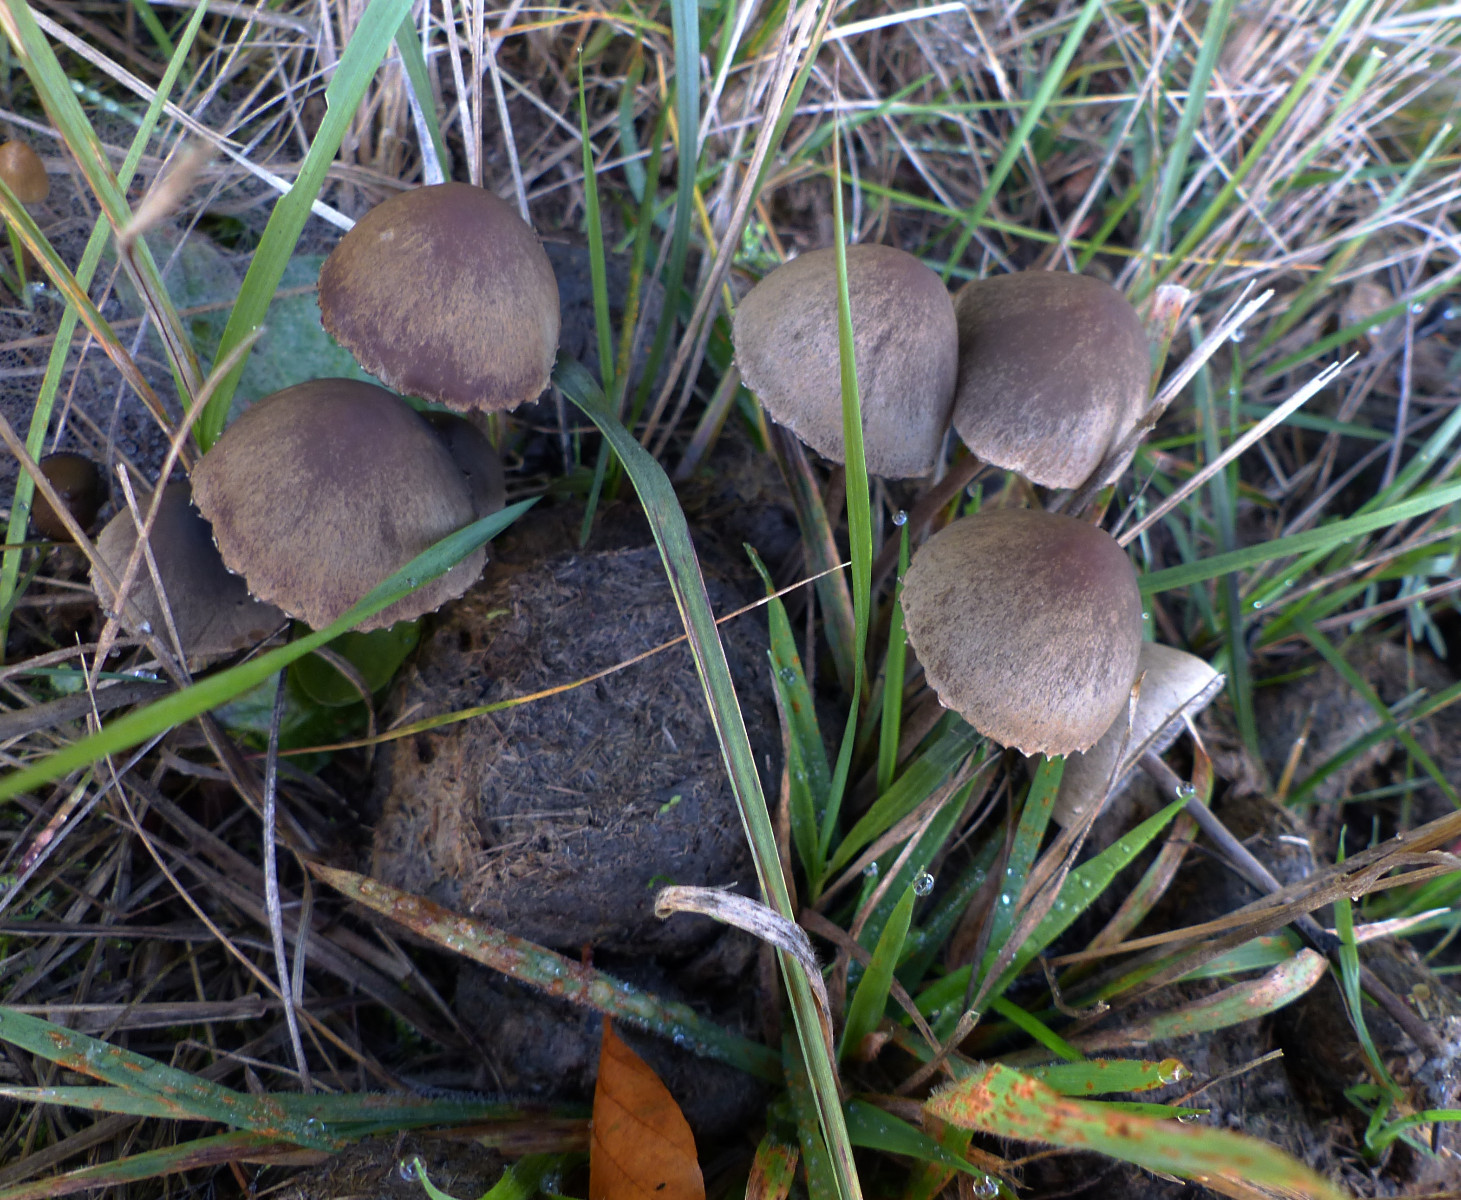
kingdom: Fungi
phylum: Basidiomycota
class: Agaricomycetes
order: Agaricales
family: Bolbitiaceae
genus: Panaeolus
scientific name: Panaeolus papilionaceus
